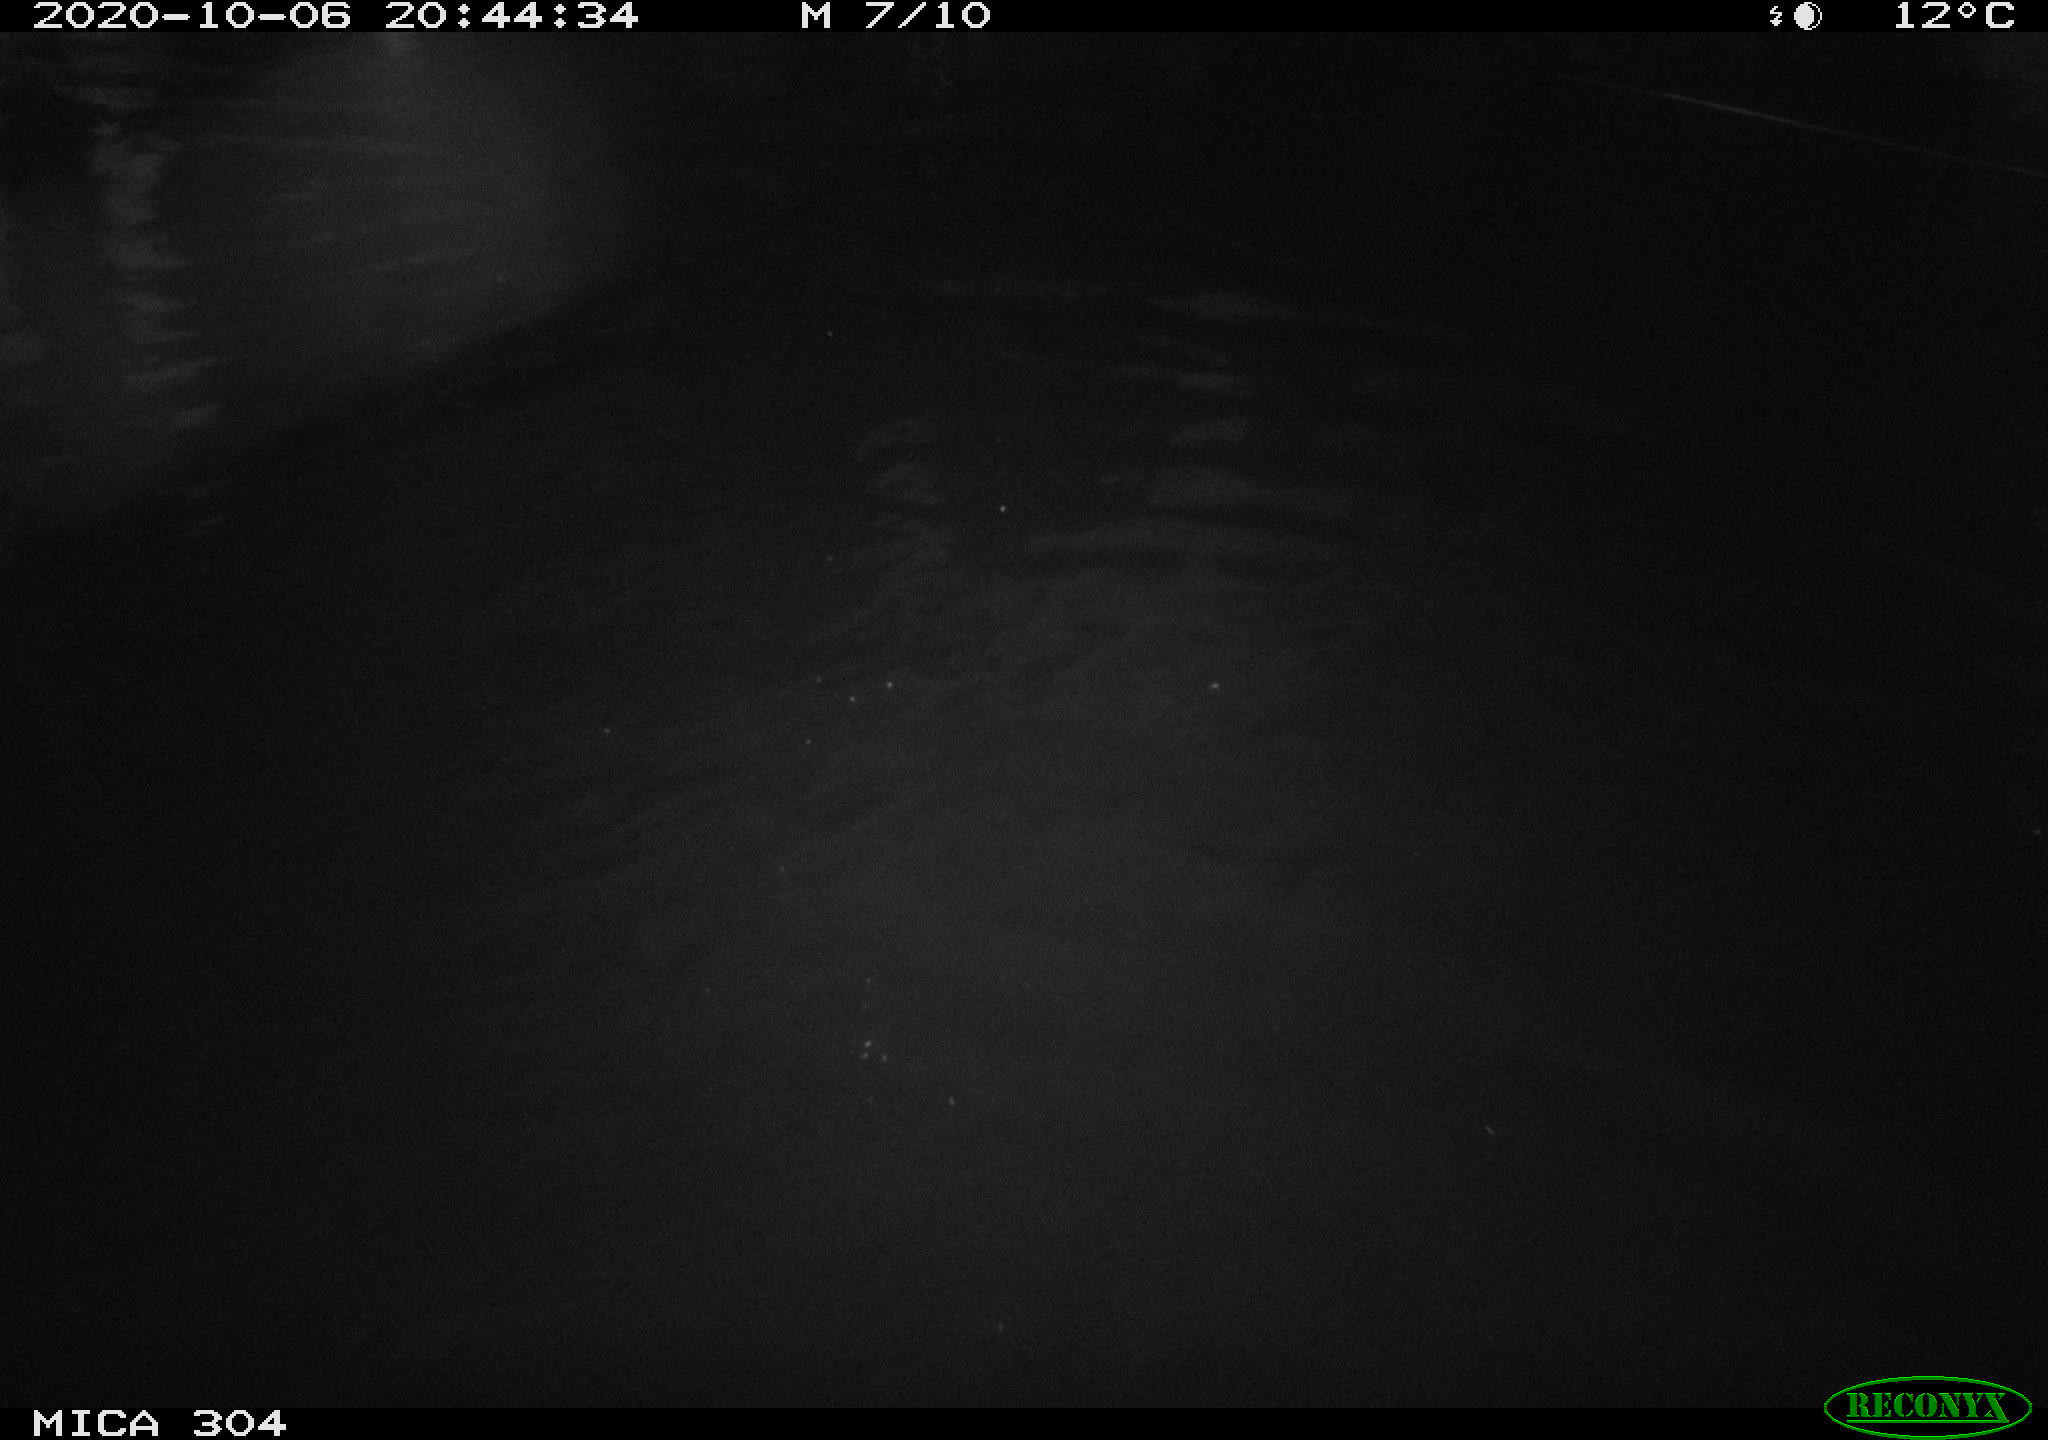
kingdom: Animalia
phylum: Chordata
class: Mammalia
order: Rodentia
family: Muridae
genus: Rattus
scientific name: Rattus norvegicus
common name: Brown rat
